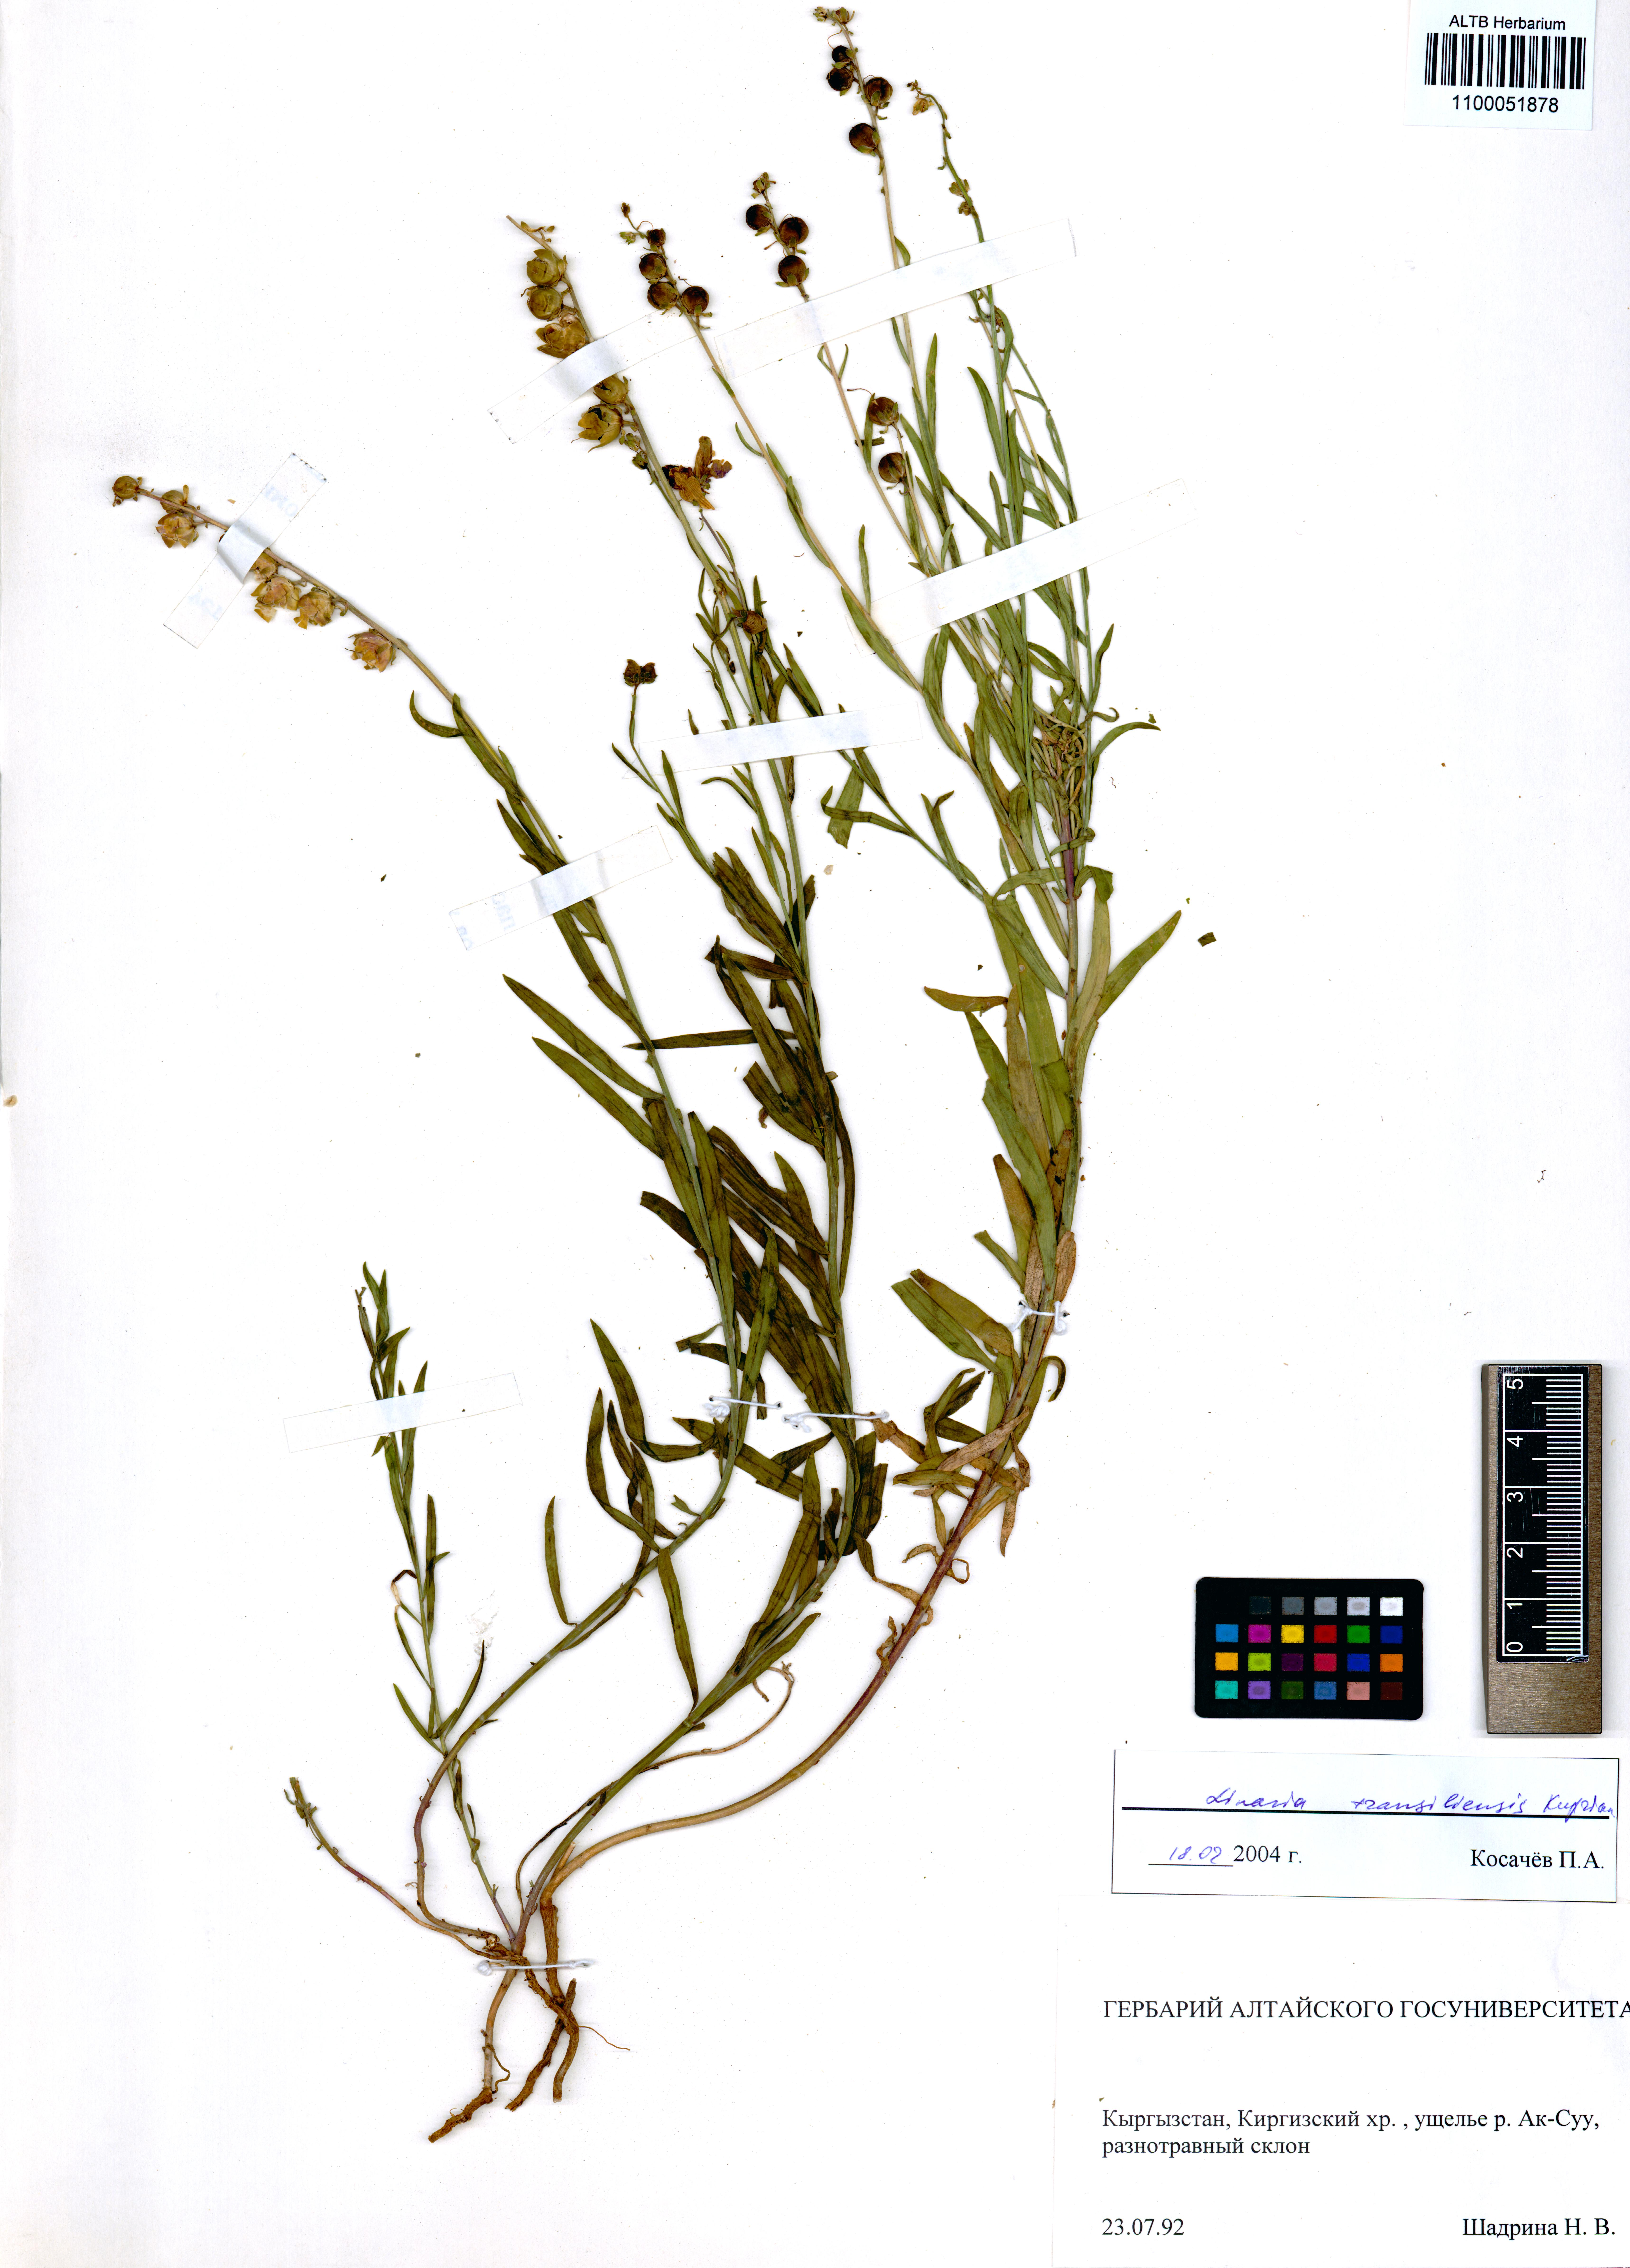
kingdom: Plantae
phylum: Tracheophyta
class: Magnoliopsida
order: Lamiales
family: Plantaginaceae
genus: Linaria
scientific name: Linaria bungei
